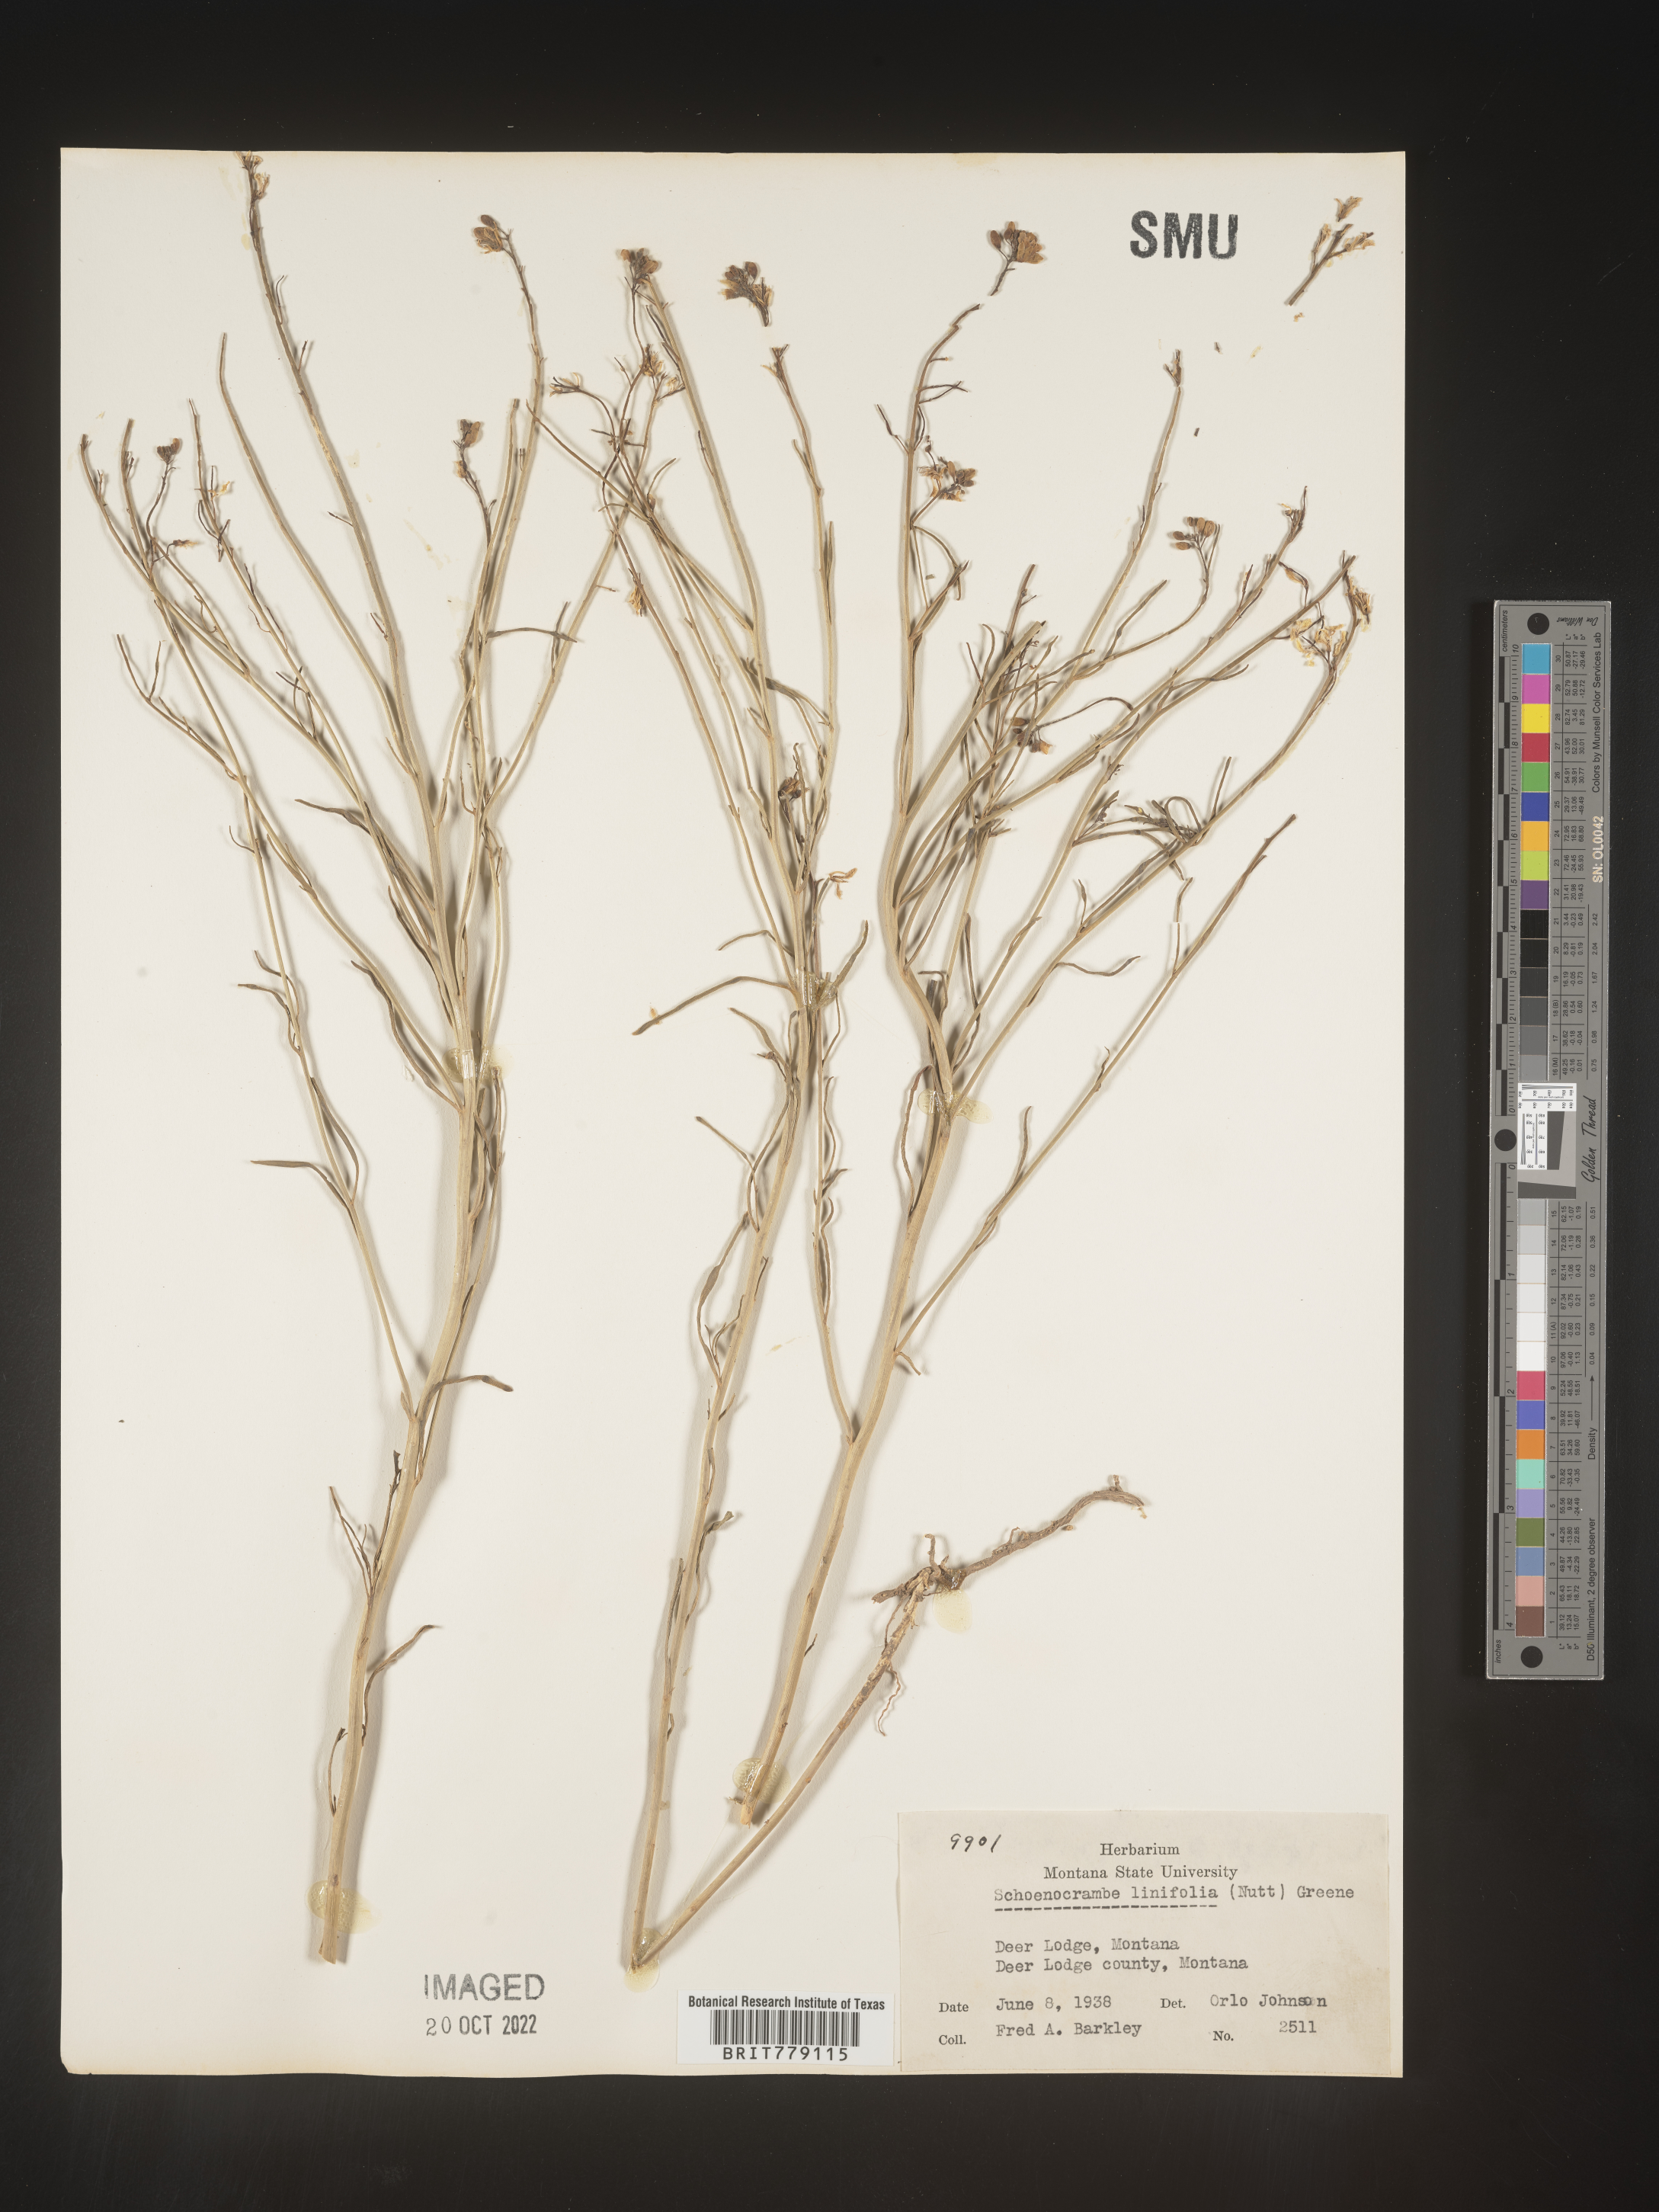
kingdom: Plantae
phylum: Tracheophyta
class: Magnoliopsida
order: Brassicales
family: Brassicaceae
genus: Hesperidanthus
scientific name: Hesperidanthus
